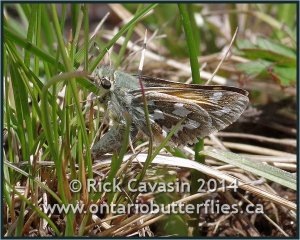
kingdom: Animalia
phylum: Arthropoda
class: Insecta
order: Lepidoptera
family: Hesperiidae
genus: Hesperia
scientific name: Hesperia juba
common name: Juba Skipper
